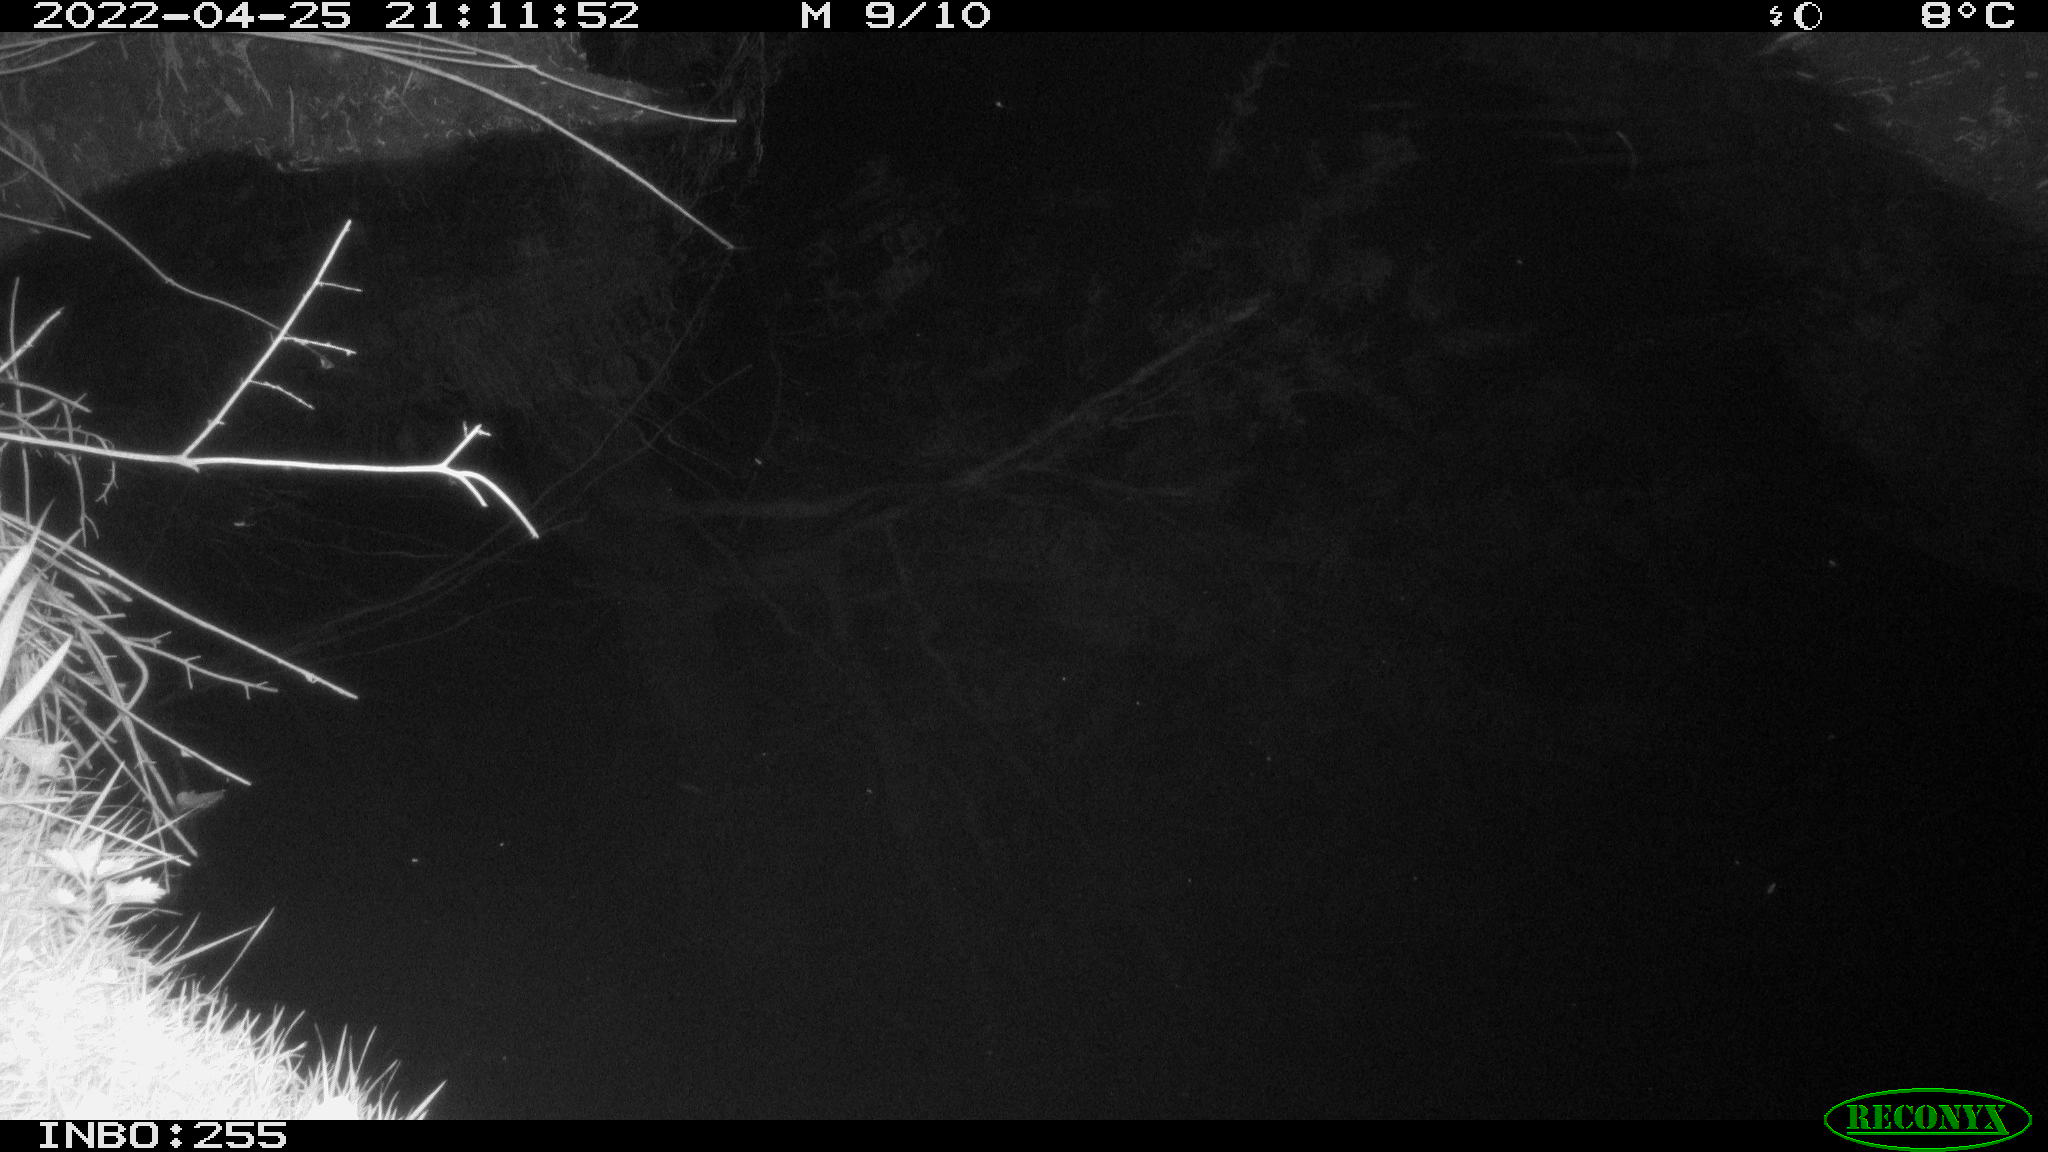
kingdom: Animalia
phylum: Chordata
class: Mammalia
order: Rodentia
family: Castoridae
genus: Castor
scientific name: Castor fiber
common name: Eurasian beaver
